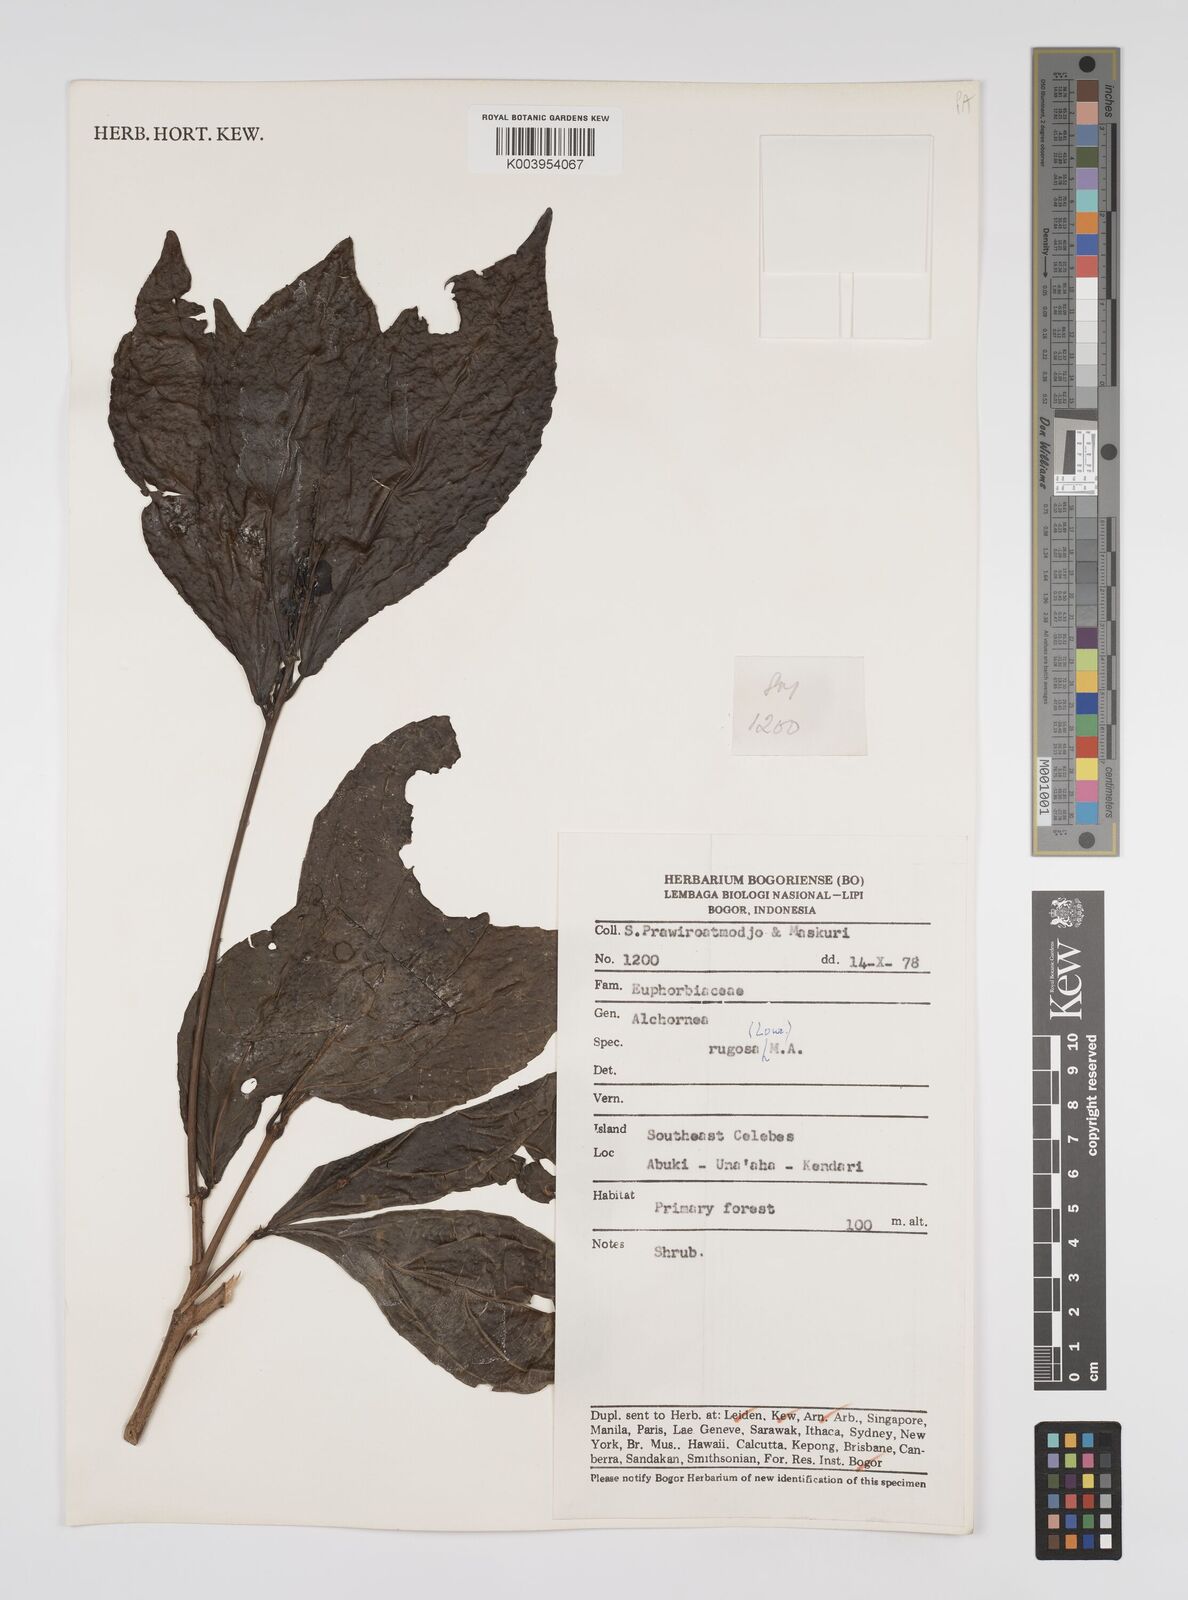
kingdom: Plantae
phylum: Tracheophyta
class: Magnoliopsida
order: Malpighiales
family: Euphorbiaceae
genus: Alchornea
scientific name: Alchornea rugosa
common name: Alchorntree
